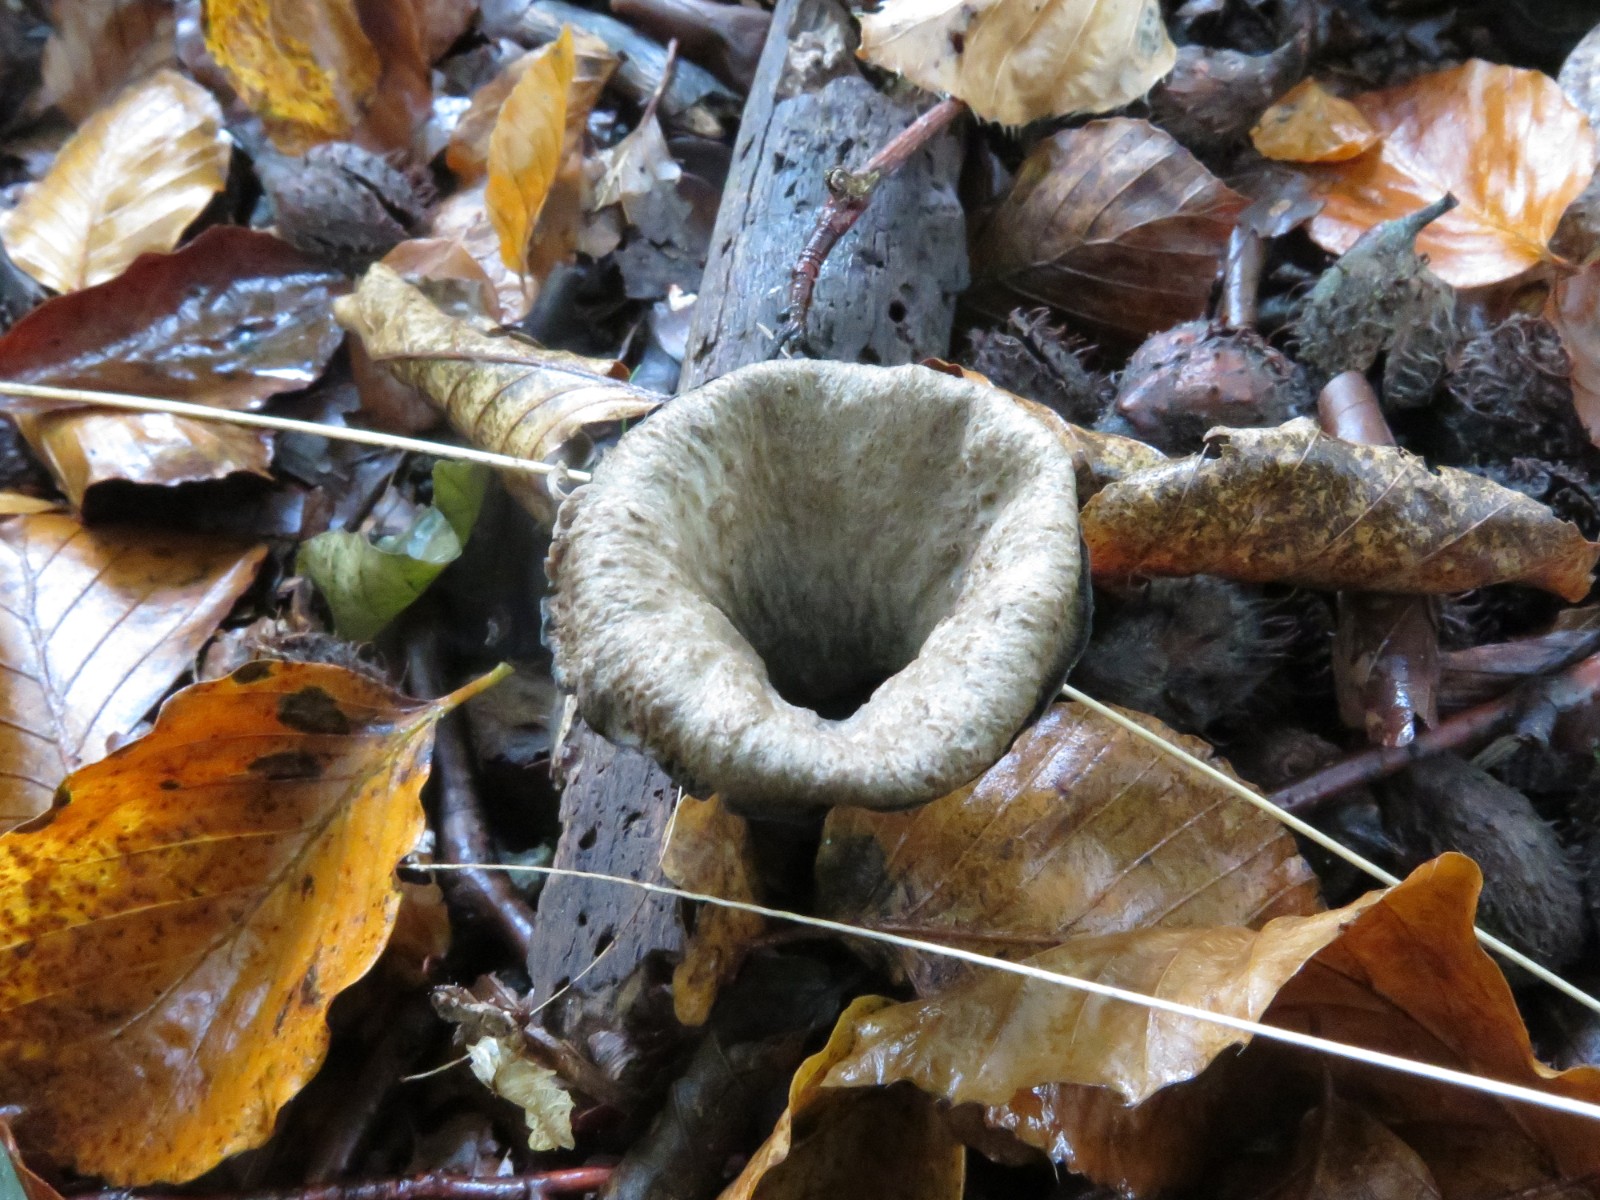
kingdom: Fungi
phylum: Basidiomycota
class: Agaricomycetes
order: Cantharellales
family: Hydnaceae
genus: Craterellus
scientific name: Craterellus cornucopioides
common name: trompetsvamp
